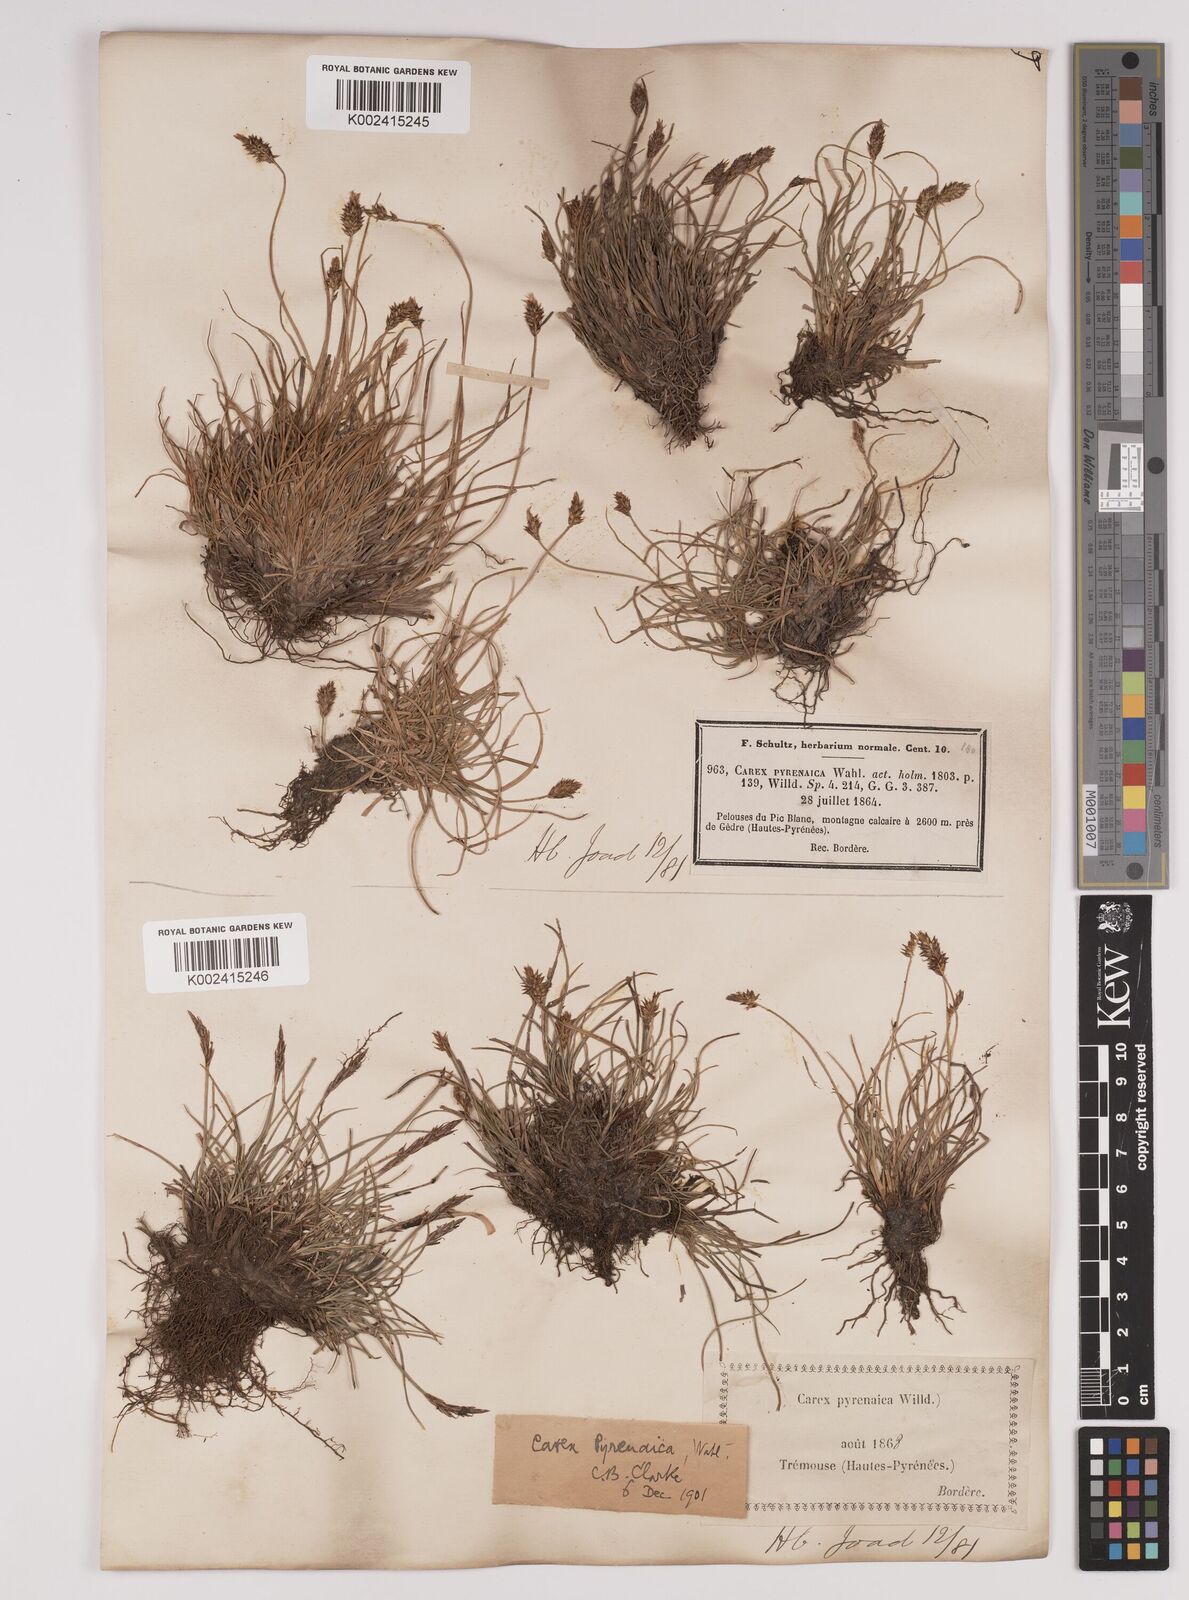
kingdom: Plantae
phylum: Tracheophyta
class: Liliopsida
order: Poales
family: Cyperaceae
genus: Carex
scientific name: Carex acicularis
